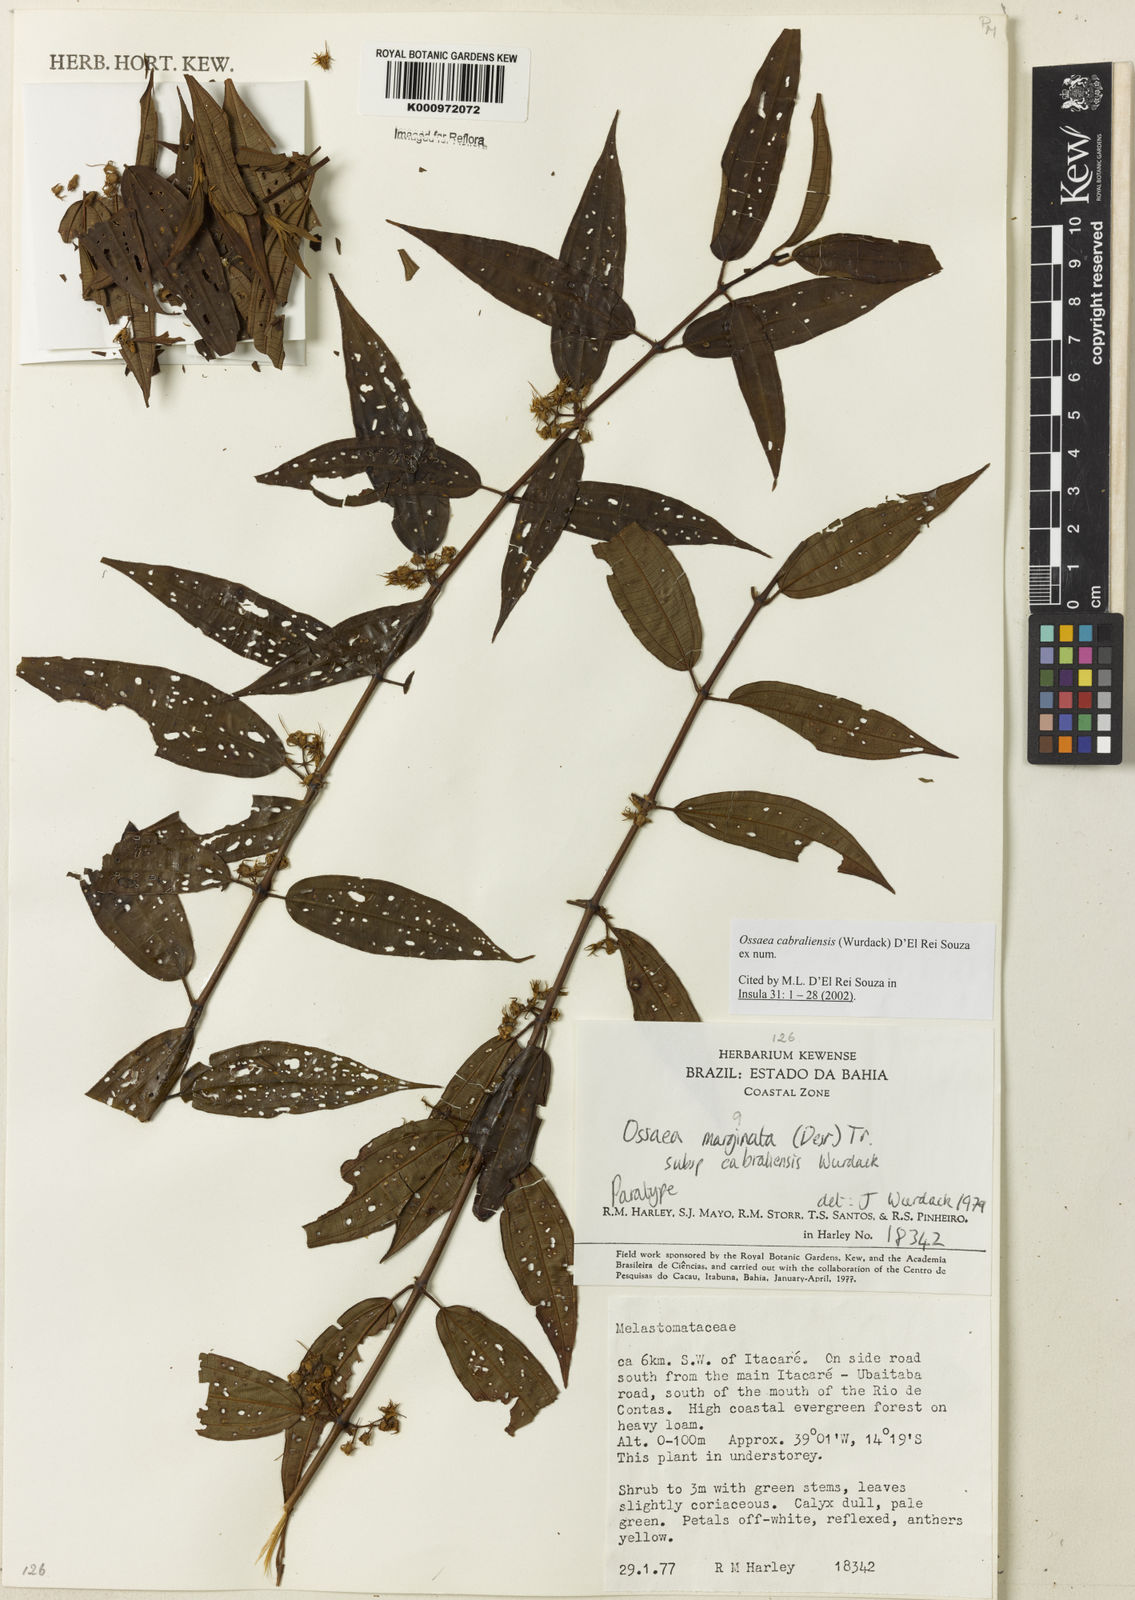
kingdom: Plantae
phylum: Tracheophyta
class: Magnoliopsida
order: Myrtales
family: Melastomataceae
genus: Miconia
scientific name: Miconia cabraliensis
